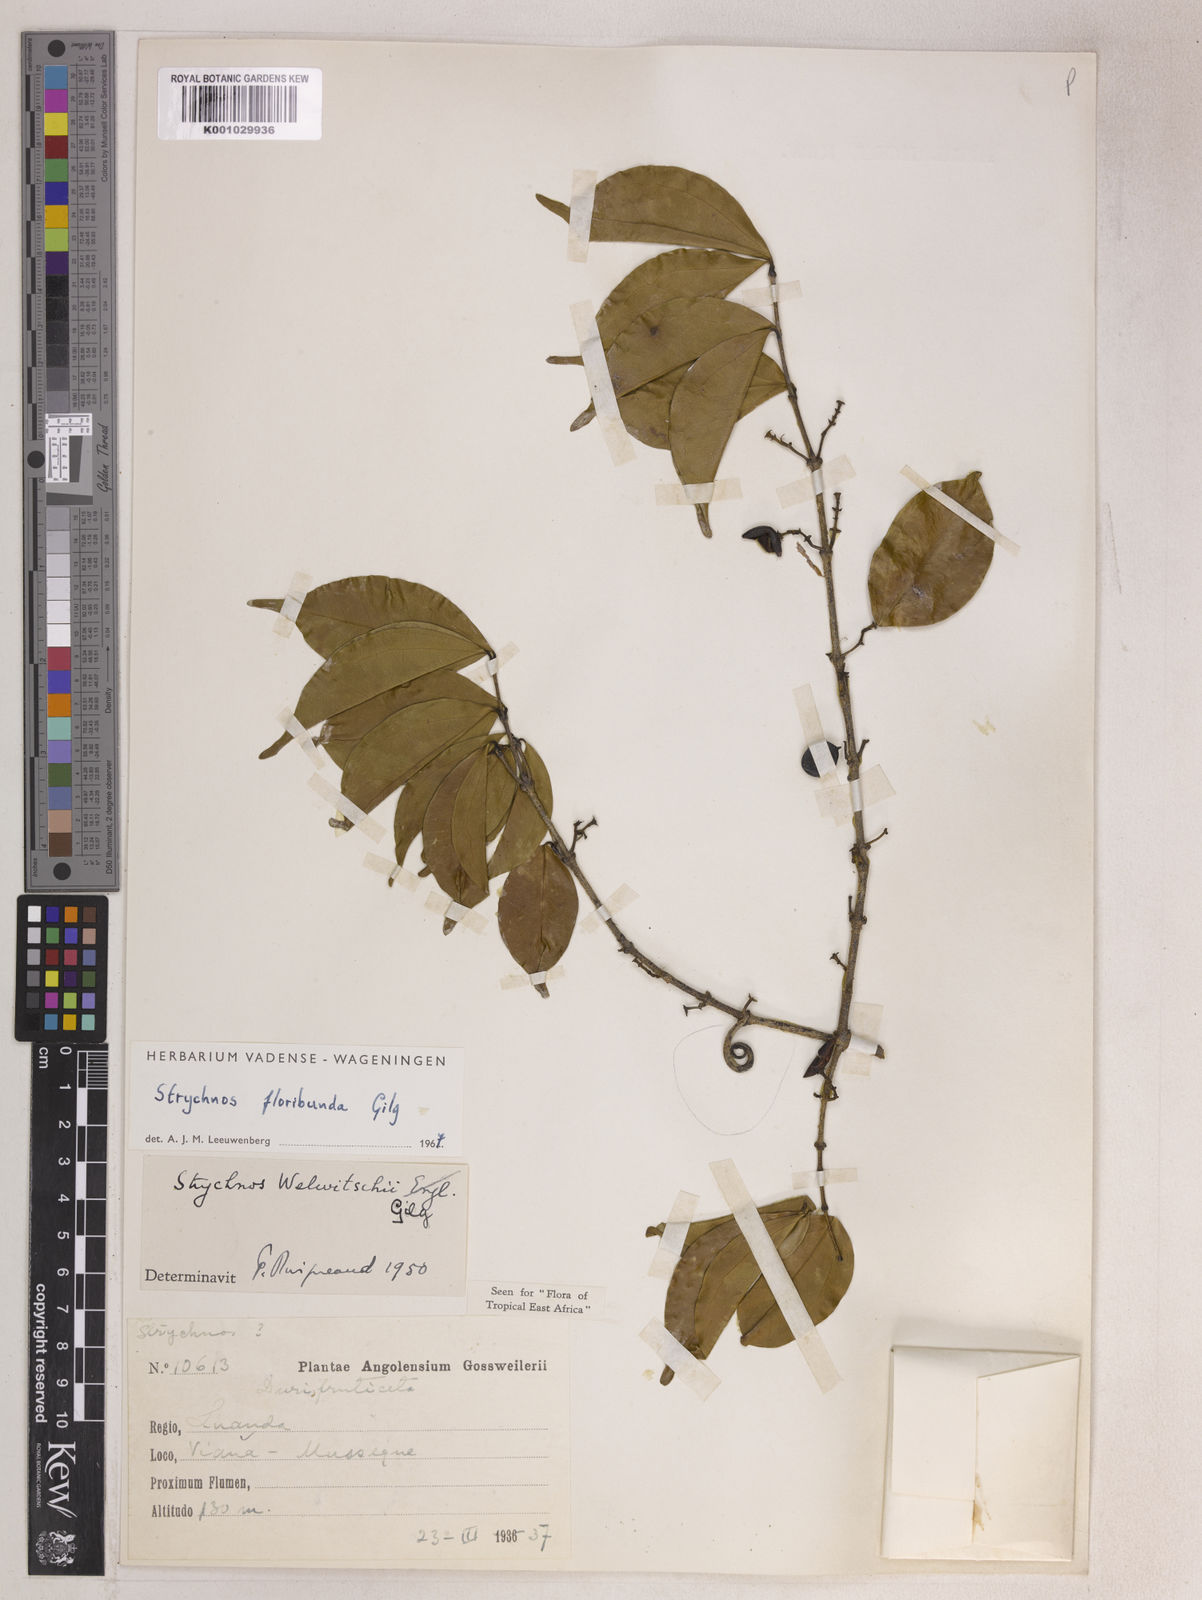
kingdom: Plantae
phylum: Tracheophyta
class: Magnoliopsida
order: Gentianales
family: Loganiaceae
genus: Strychnos
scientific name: Strychnos floribunda
